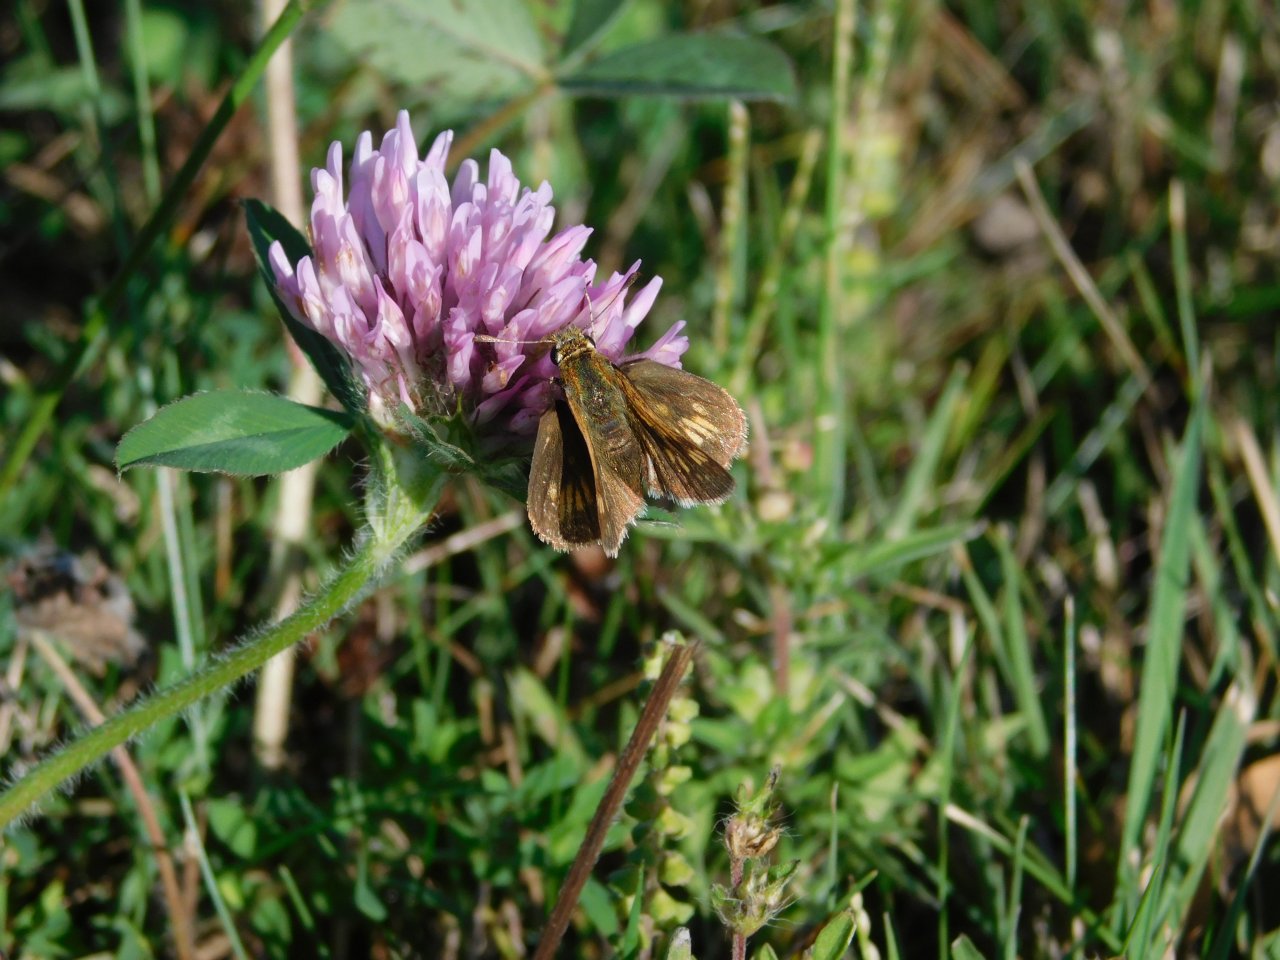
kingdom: Animalia
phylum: Arthropoda
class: Insecta
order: Lepidoptera
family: Hesperiidae
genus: Polites
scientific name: Polites coras
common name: Peck's Skipper
